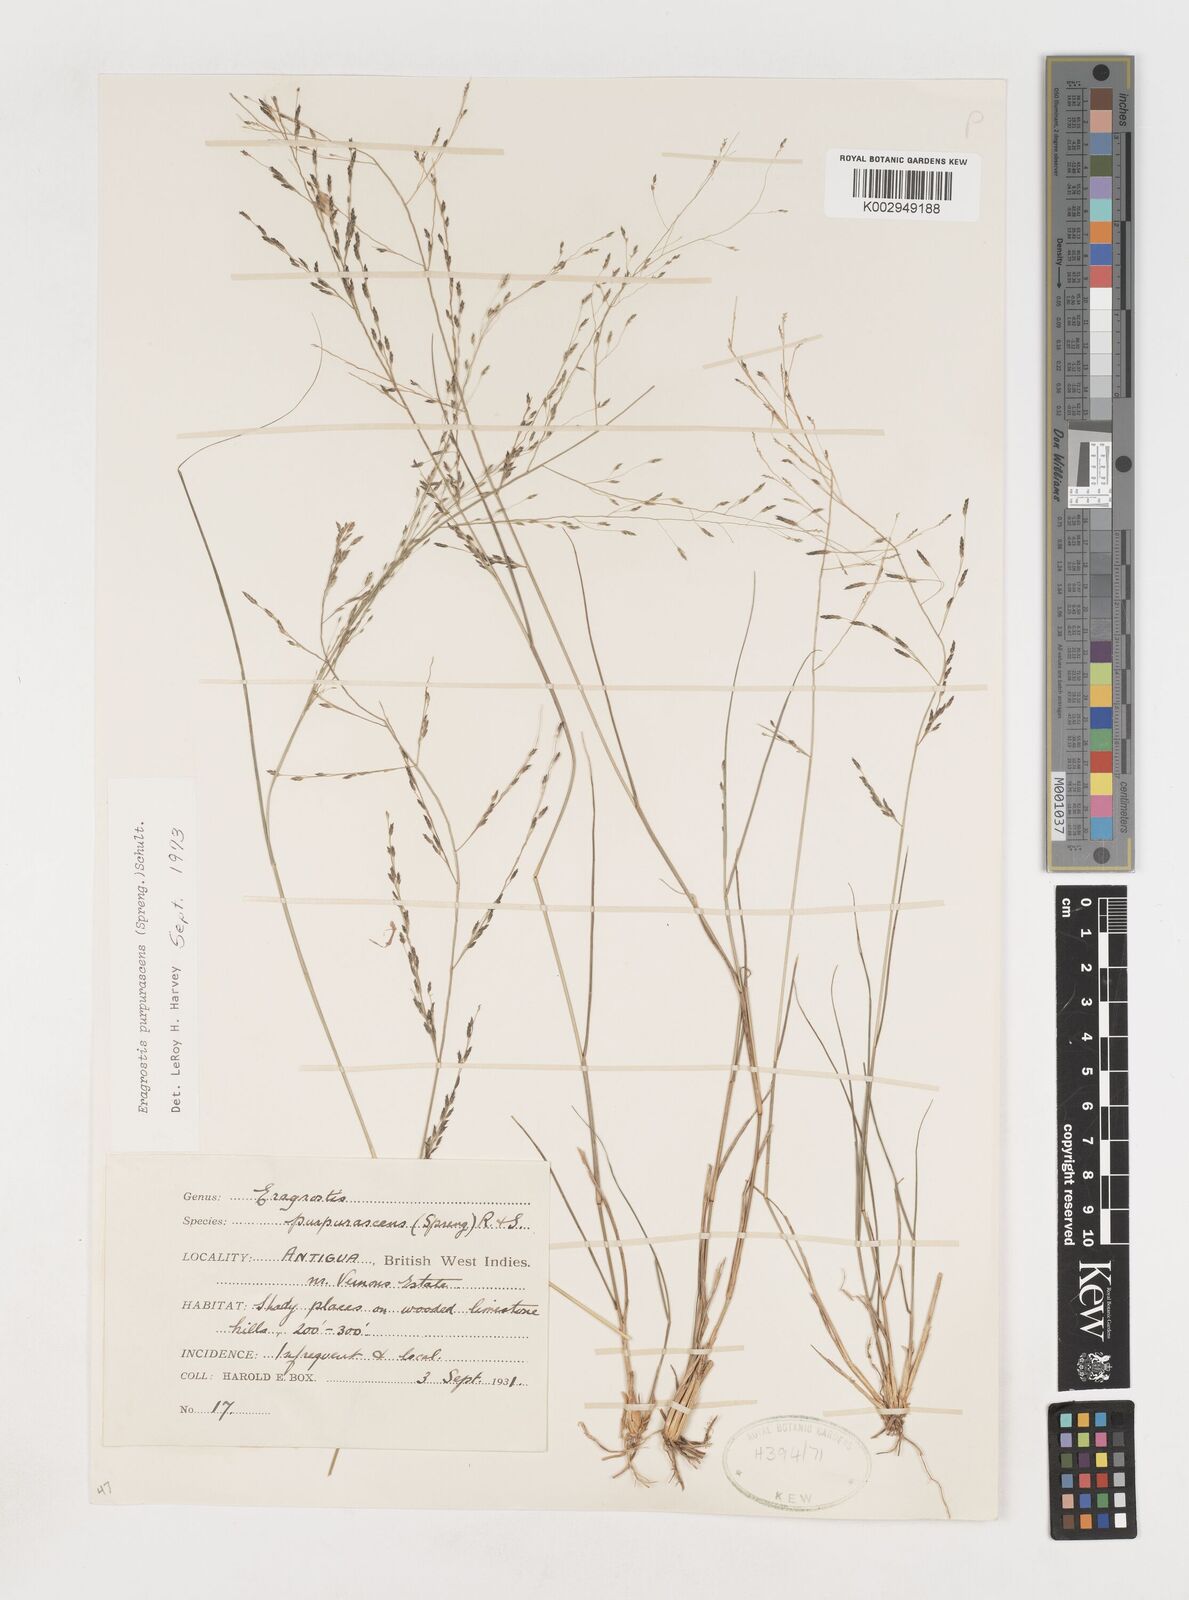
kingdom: Plantae
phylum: Tracheophyta
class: Liliopsida
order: Poales
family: Poaceae
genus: Eragrostis
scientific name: Eragrostis purpurascens
